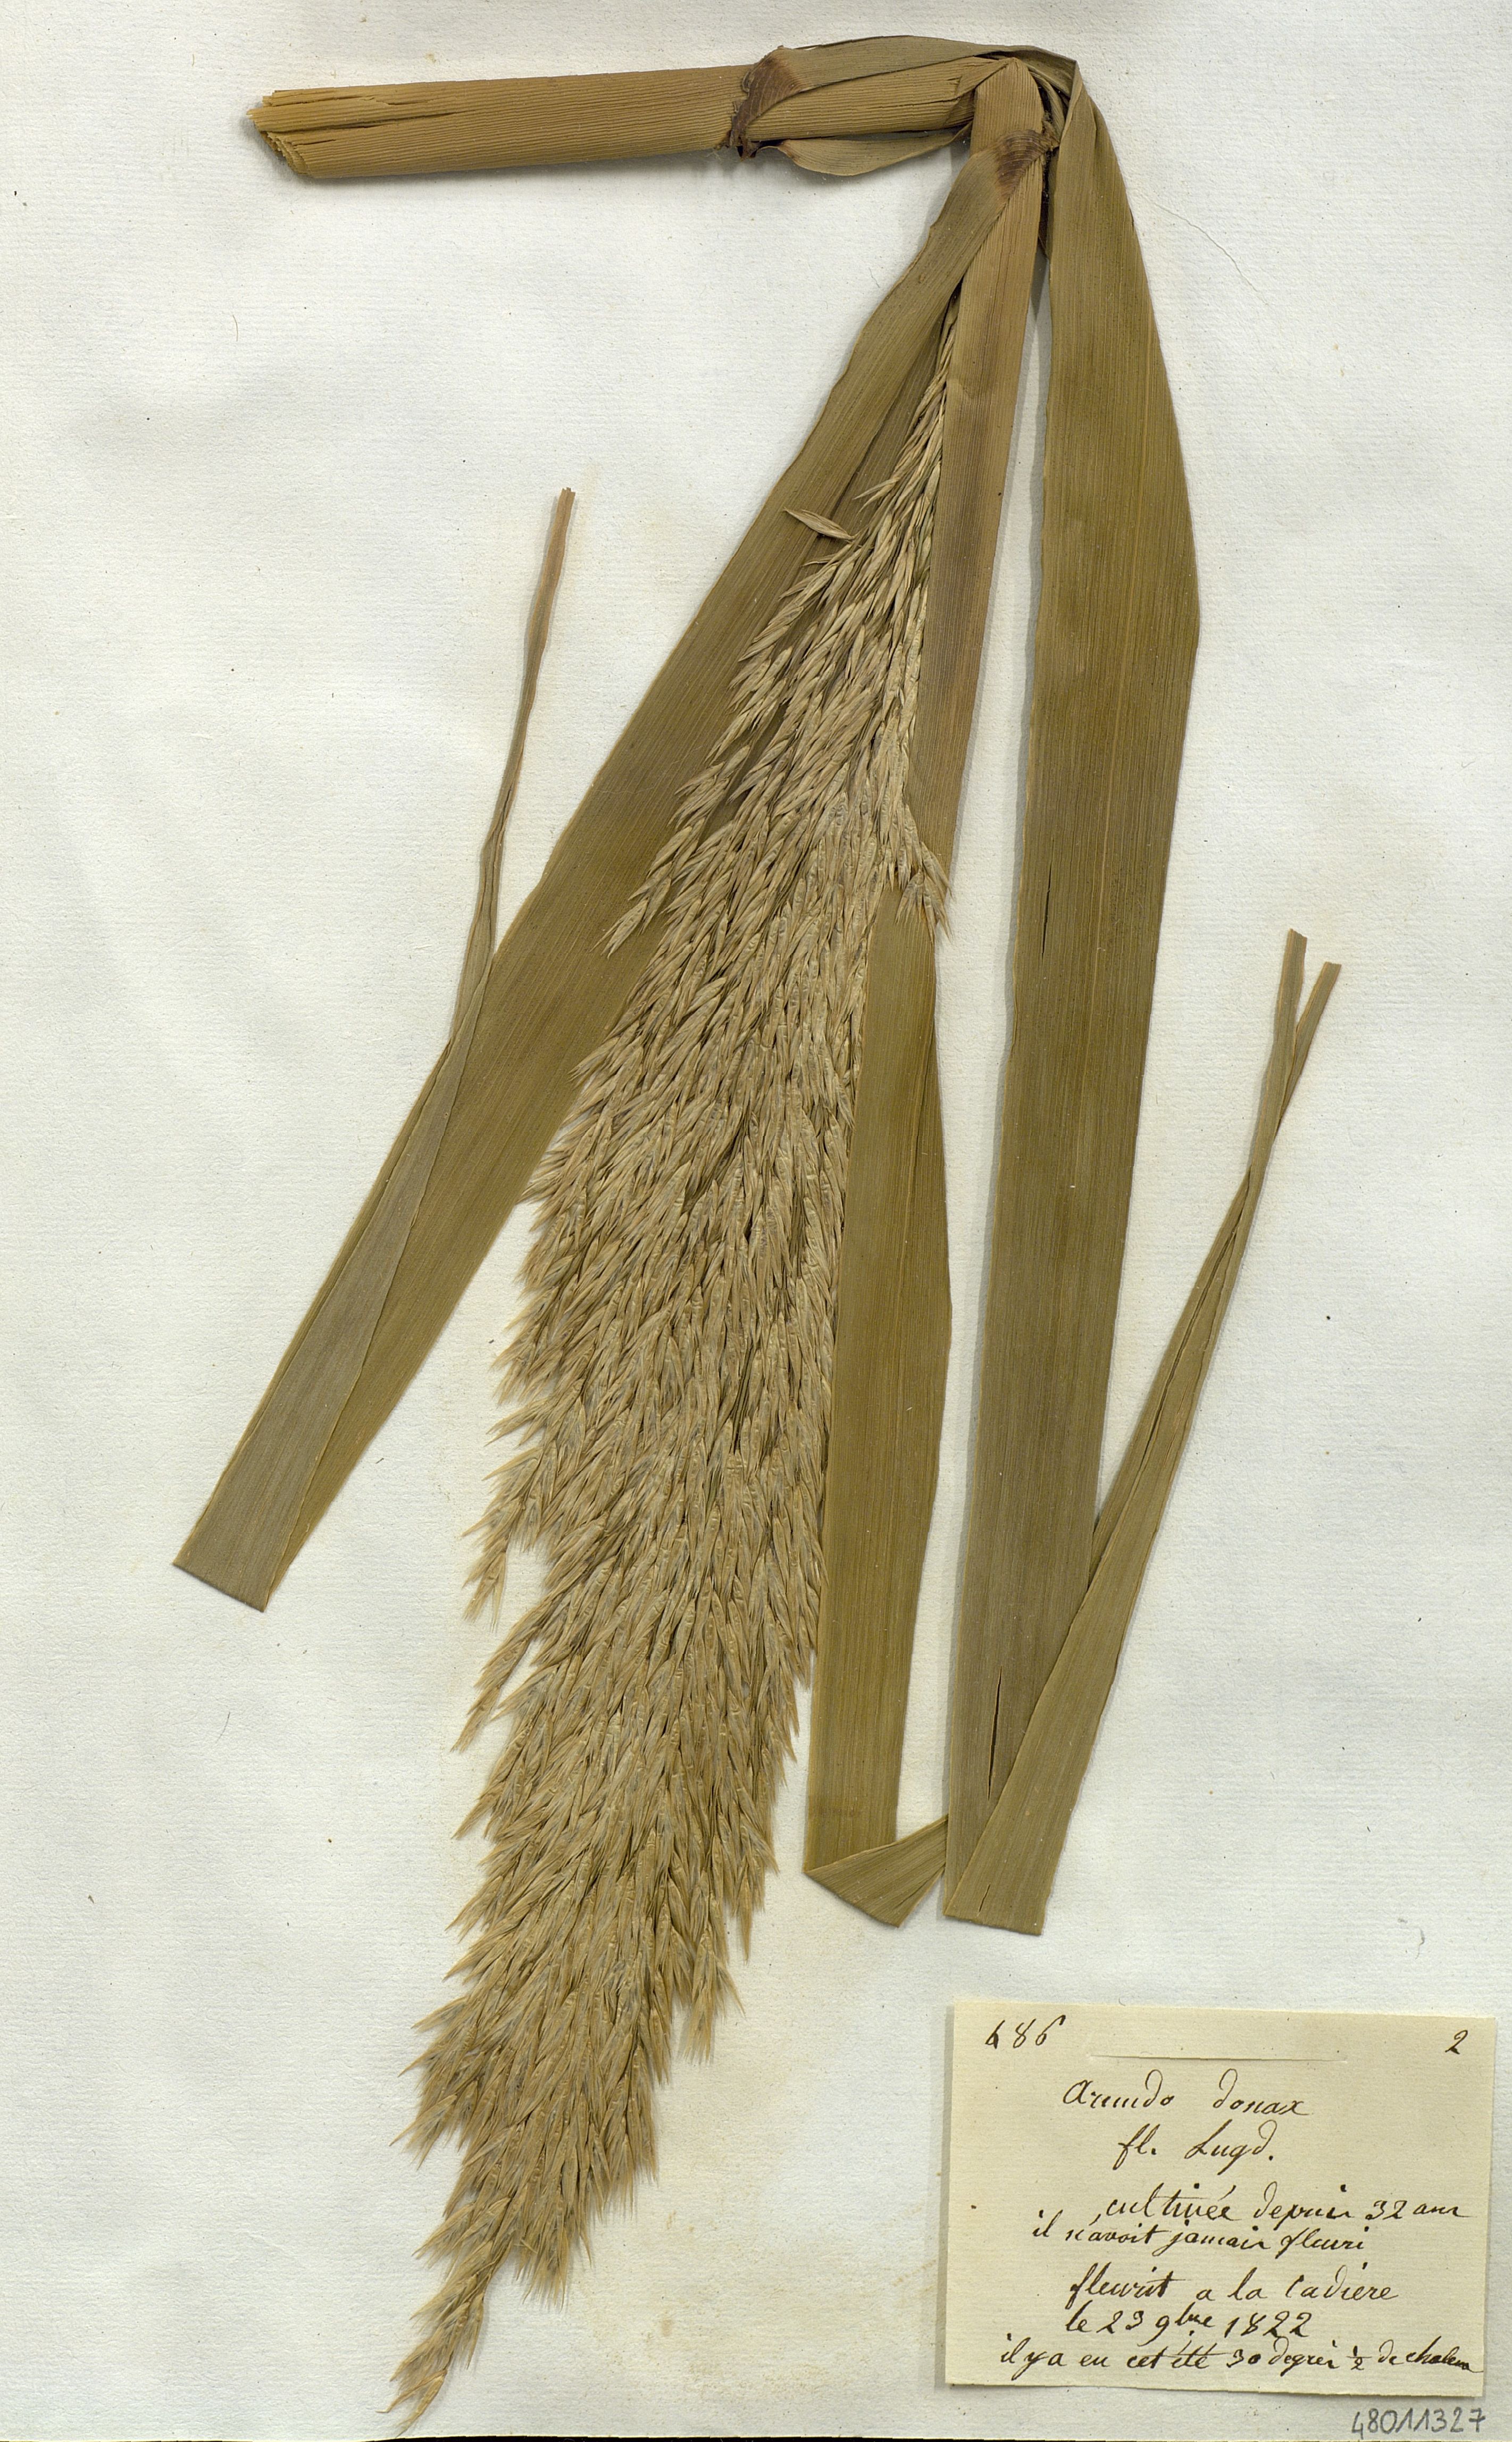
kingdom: Plantae
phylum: Tracheophyta
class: Liliopsida
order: Poales
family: Poaceae
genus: Arundo
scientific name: Arundo donax
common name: Giant reed
